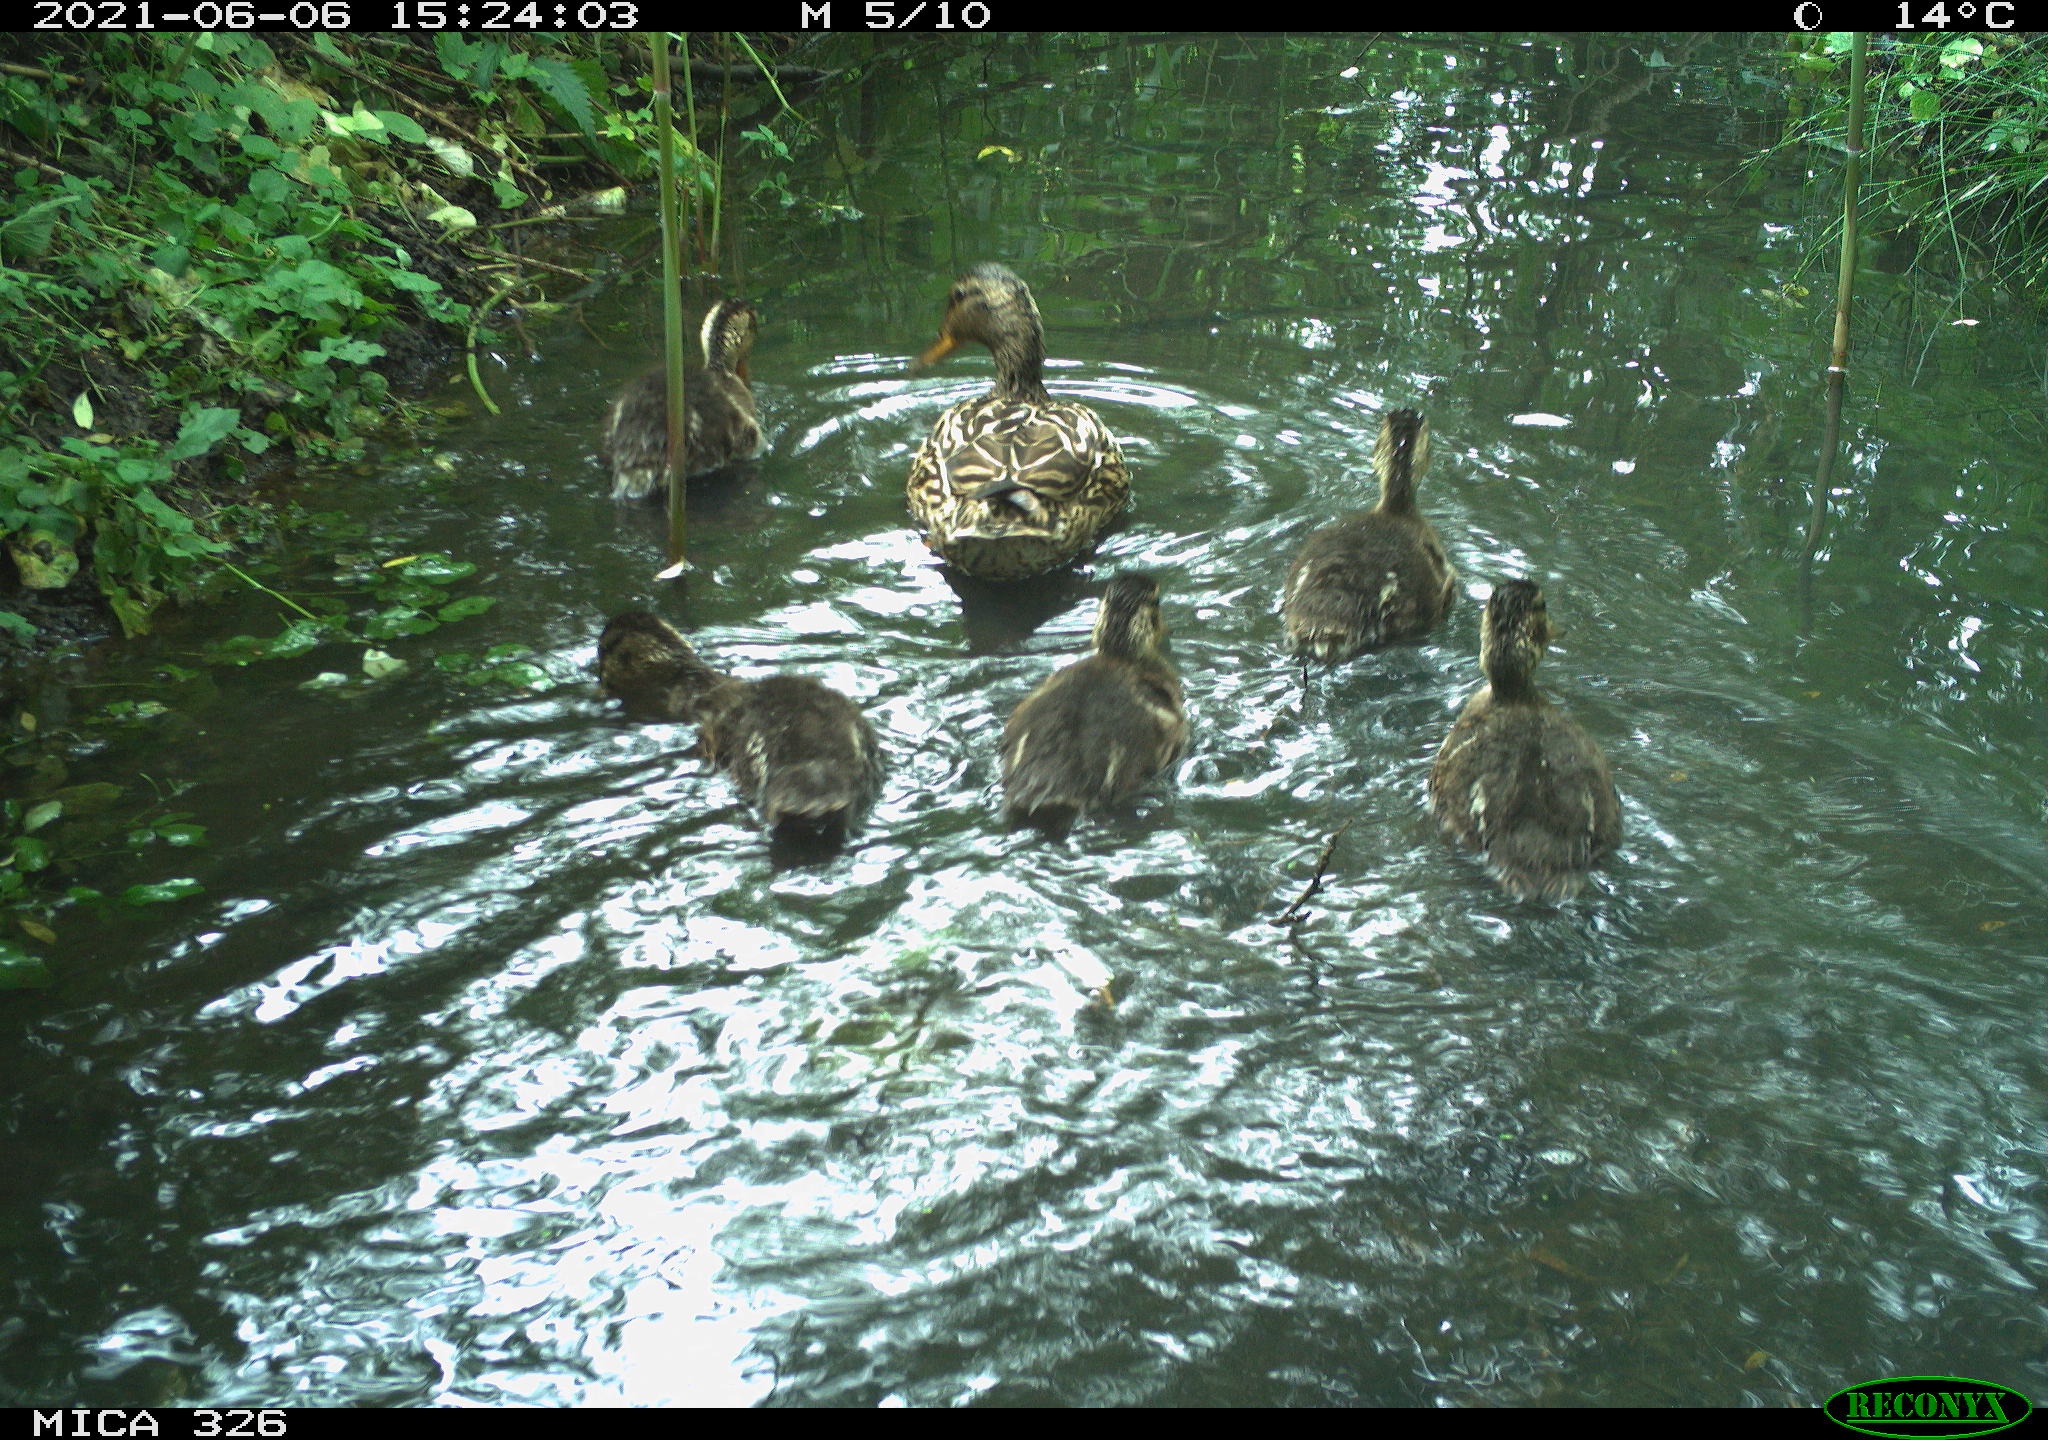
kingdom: Animalia
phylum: Chordata
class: Aves
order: Anseriformes
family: Anatidae
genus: Anas
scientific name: Anas platyrhynchos
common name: Mallard
